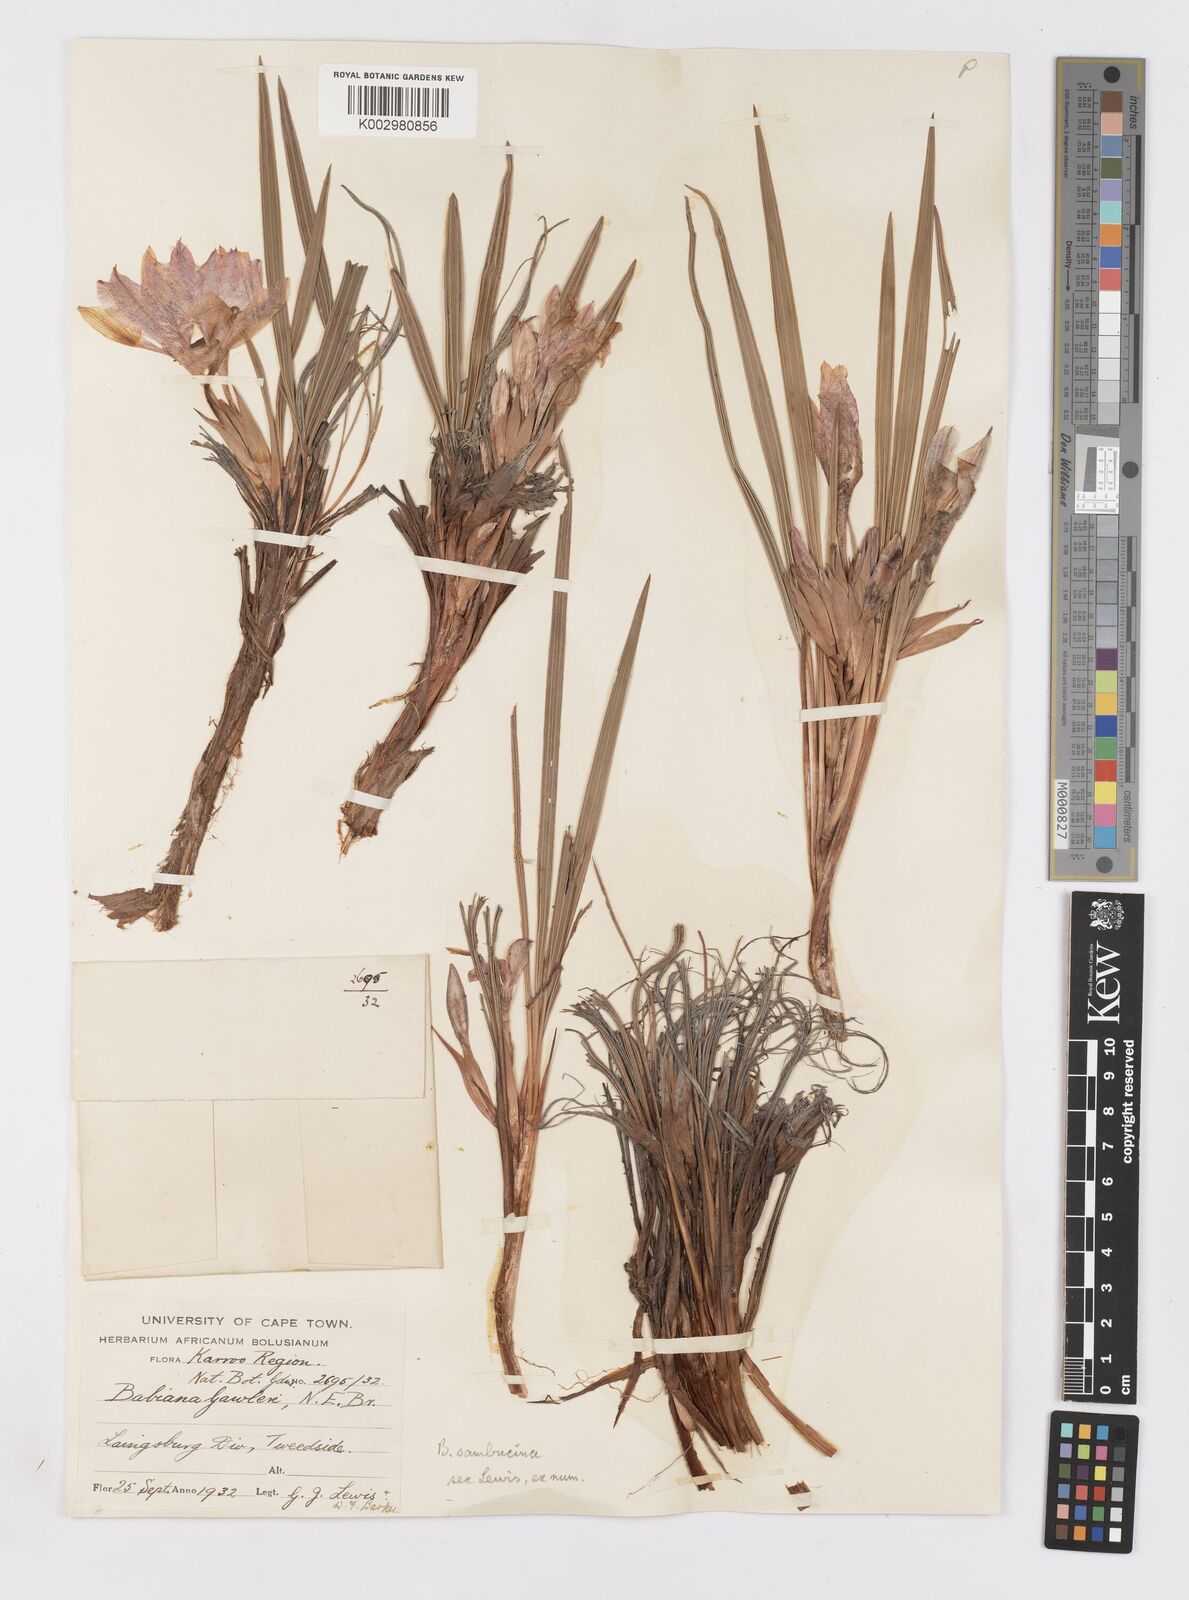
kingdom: Plantae
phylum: Tracheophyta
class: Liliopsida
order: Asparagales
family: Iridaceae
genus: Babiana
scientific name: Babiana sambucina
